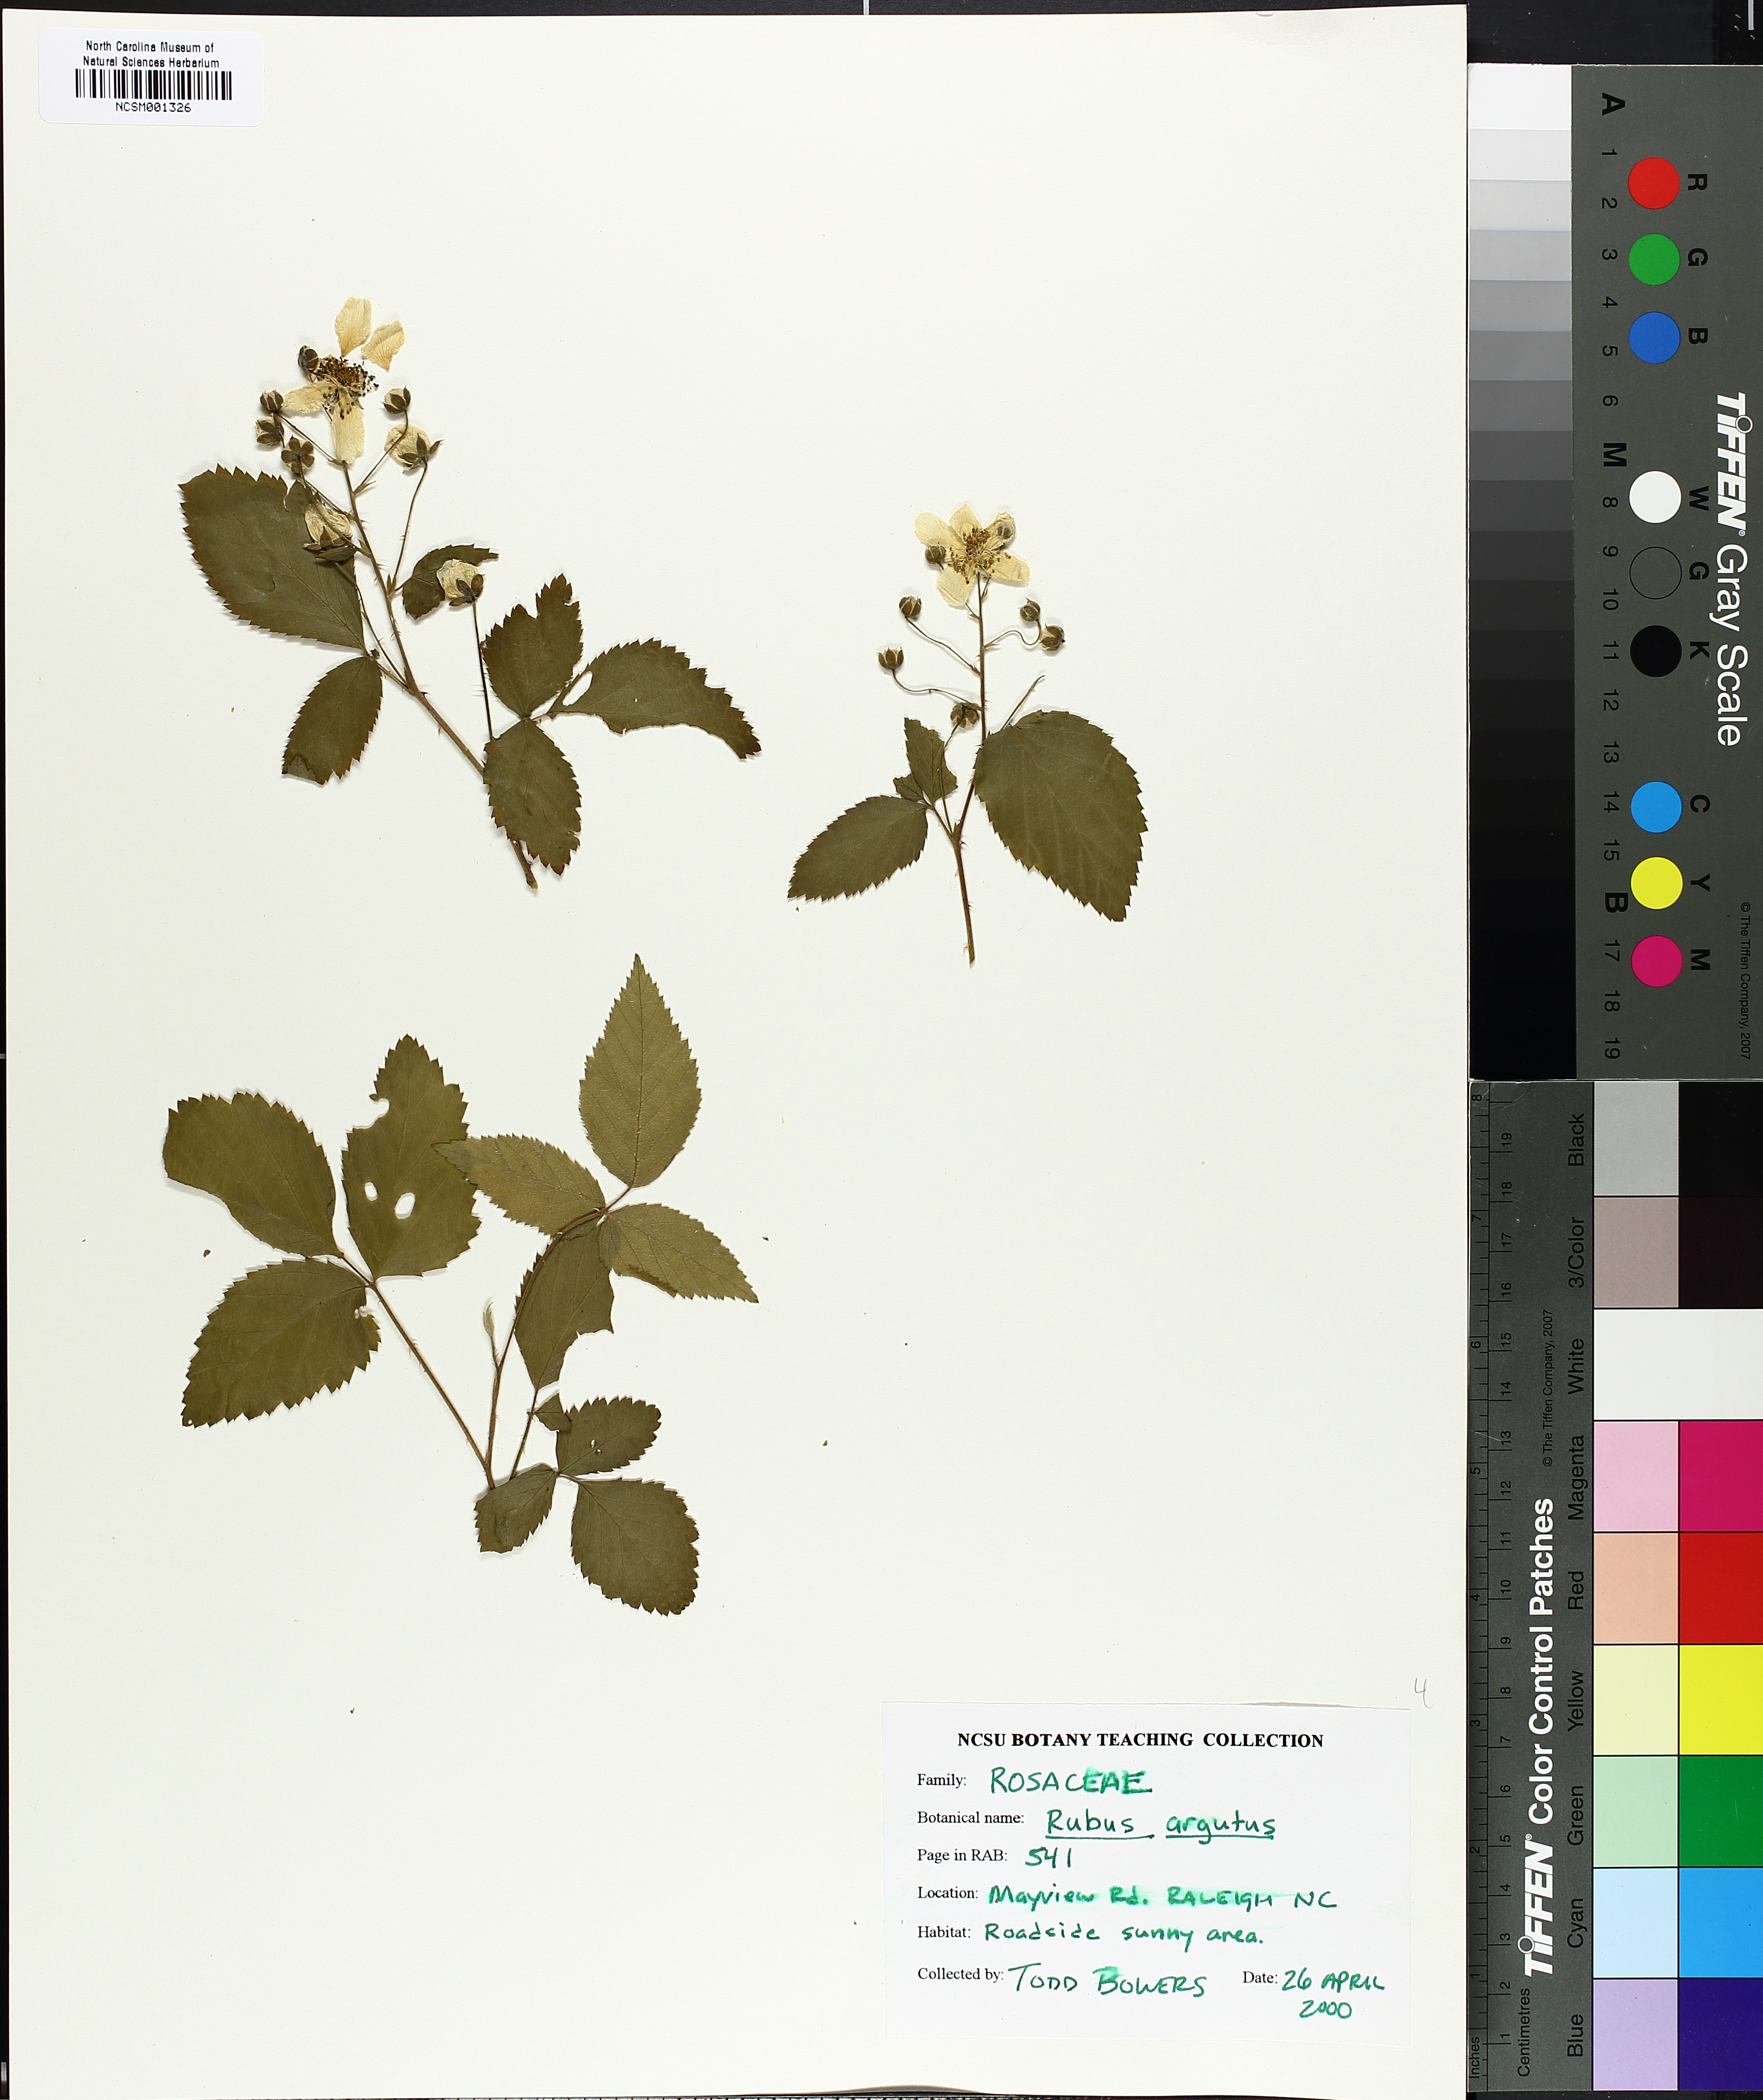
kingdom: Plantae
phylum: Tracheophyta
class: Magnoliopsida
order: Rosales
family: Rosaceae
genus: Rubus
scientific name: Rubus argutus
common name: Sawtooth blackberry
